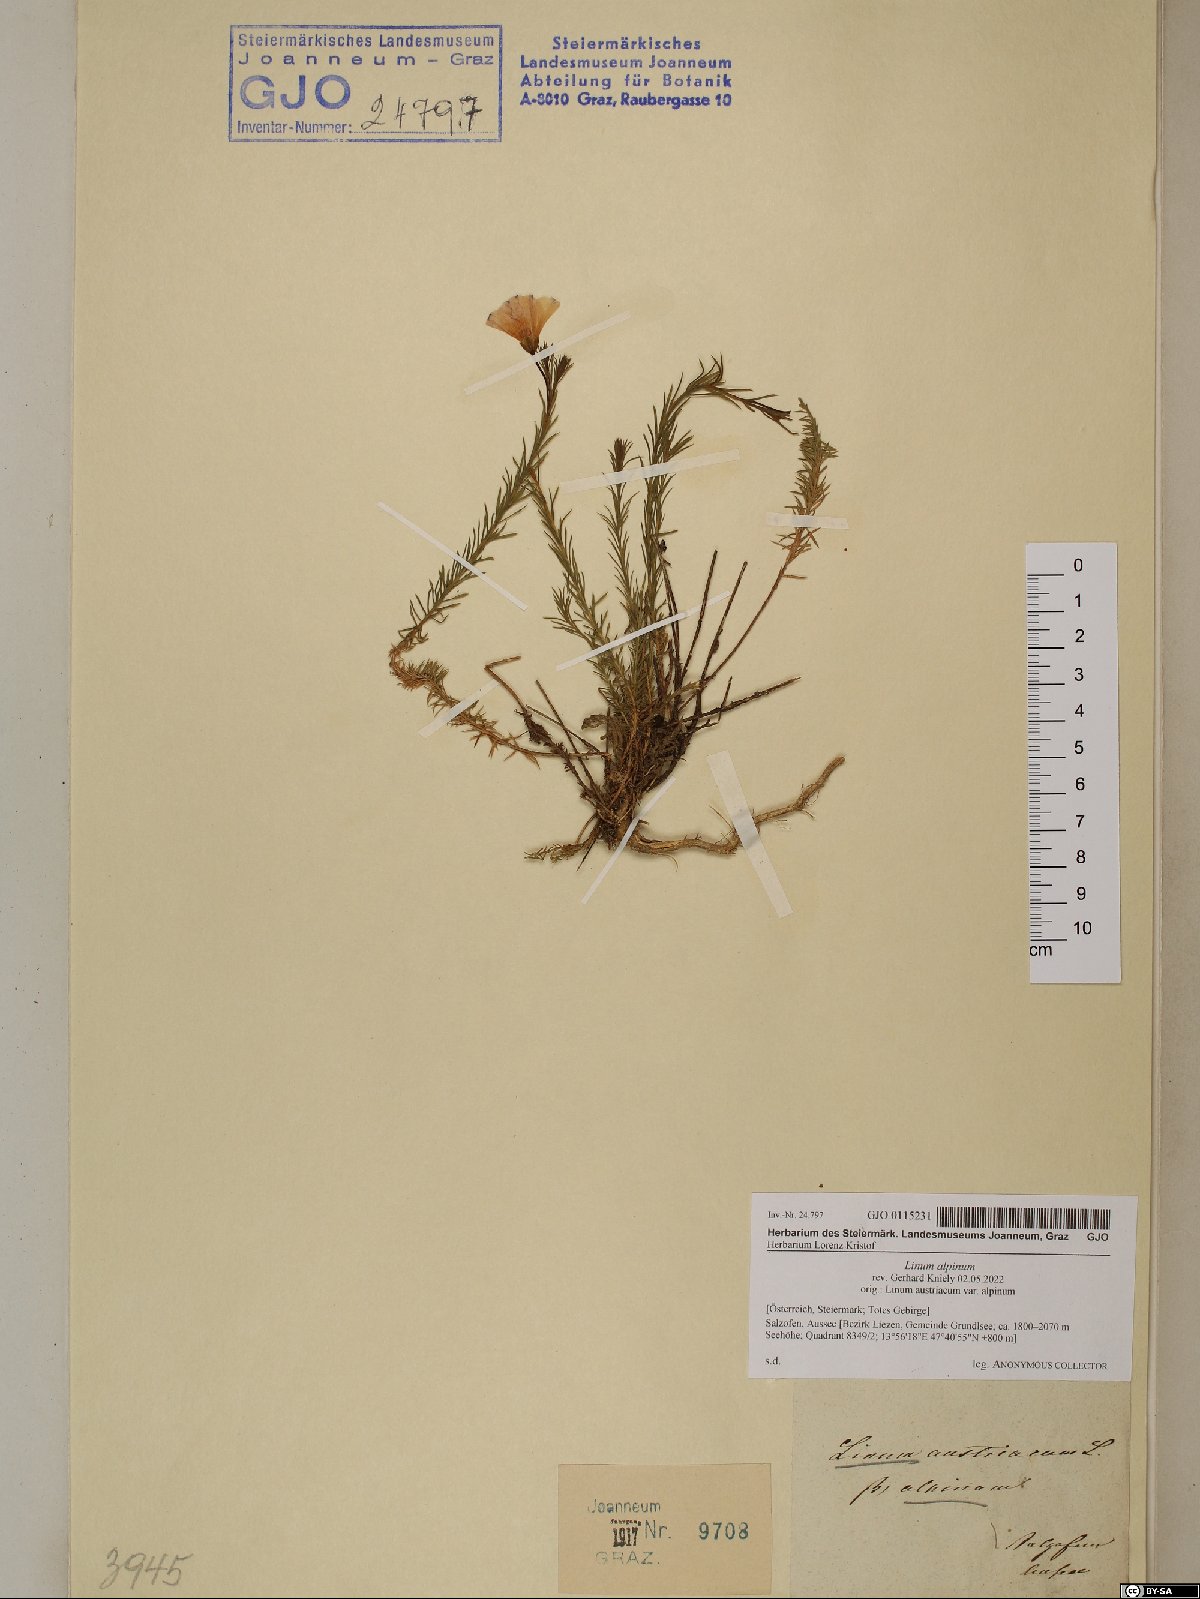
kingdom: Plantae
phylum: Tracheophyta
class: Magnoliopsida
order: Malpighiales
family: Linaceae
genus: Linum
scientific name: Linum alpinum
